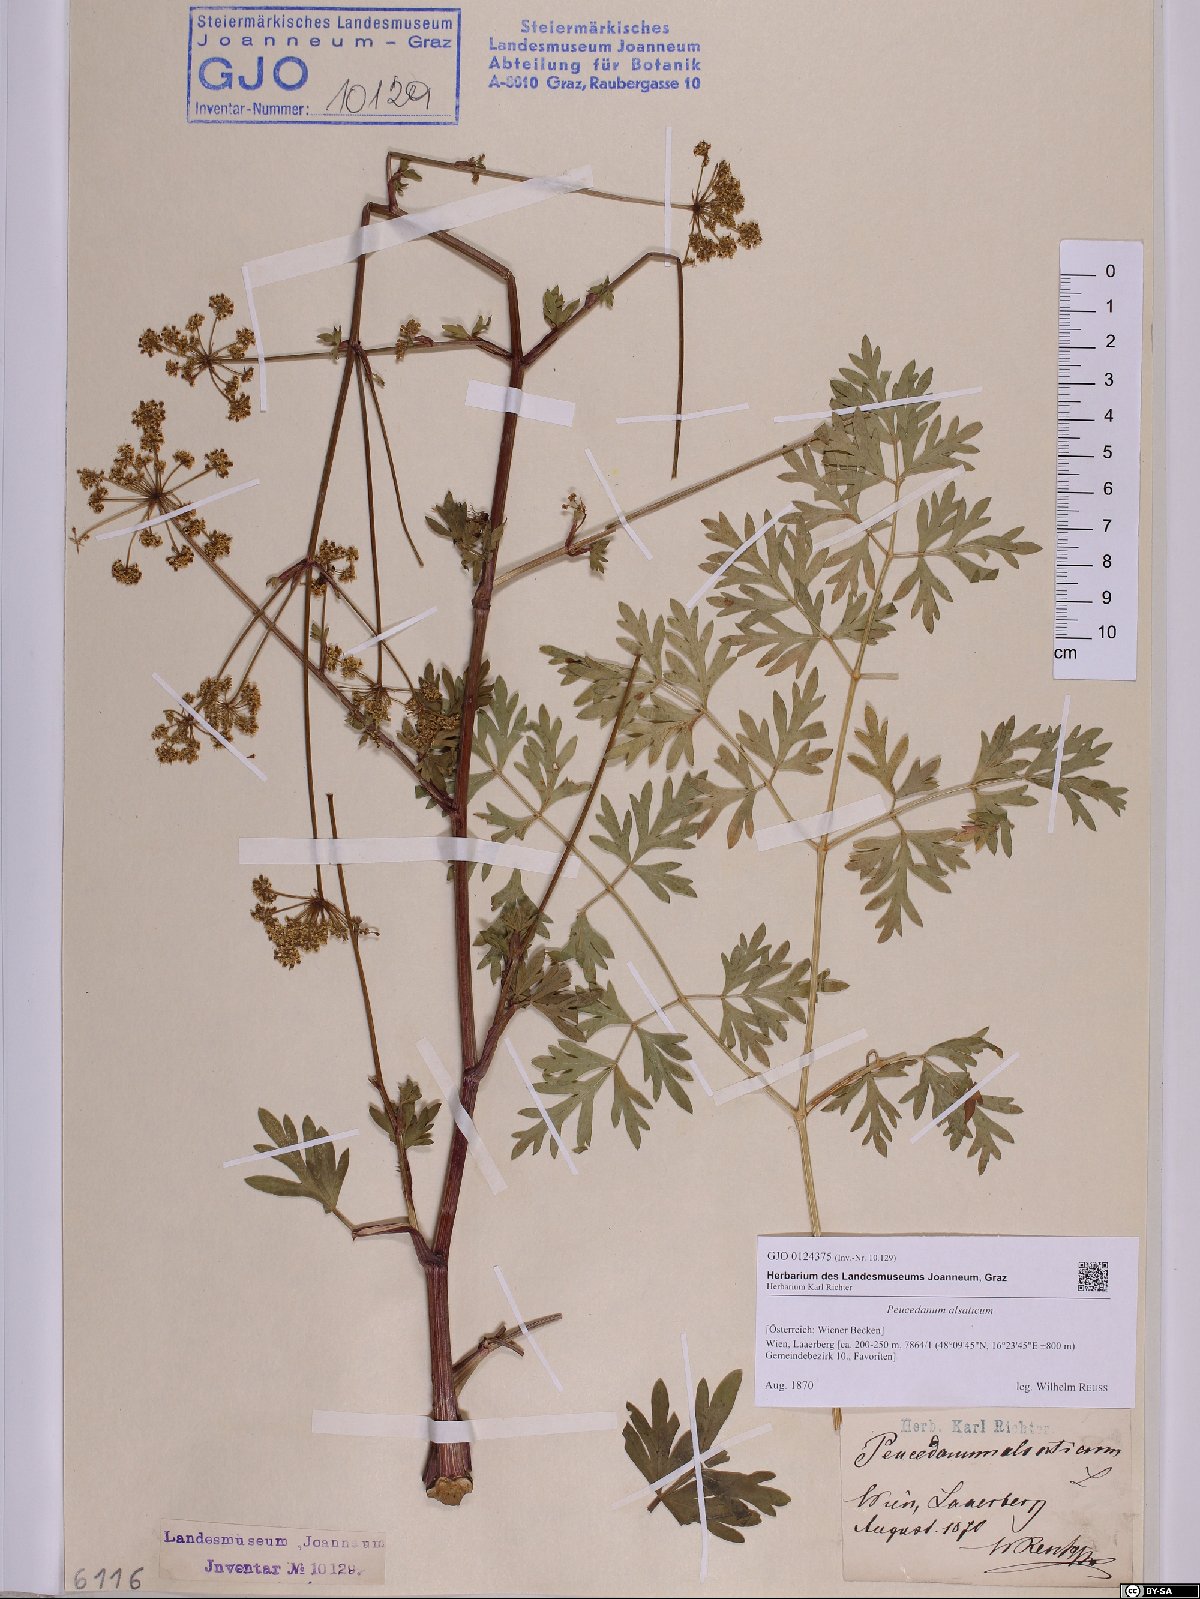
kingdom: Plantae
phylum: Tracheophyta
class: Magnoliopsida
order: Apiales
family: Apiaceae
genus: Xanthoselinum
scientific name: Xanthoselinum alsaticum
